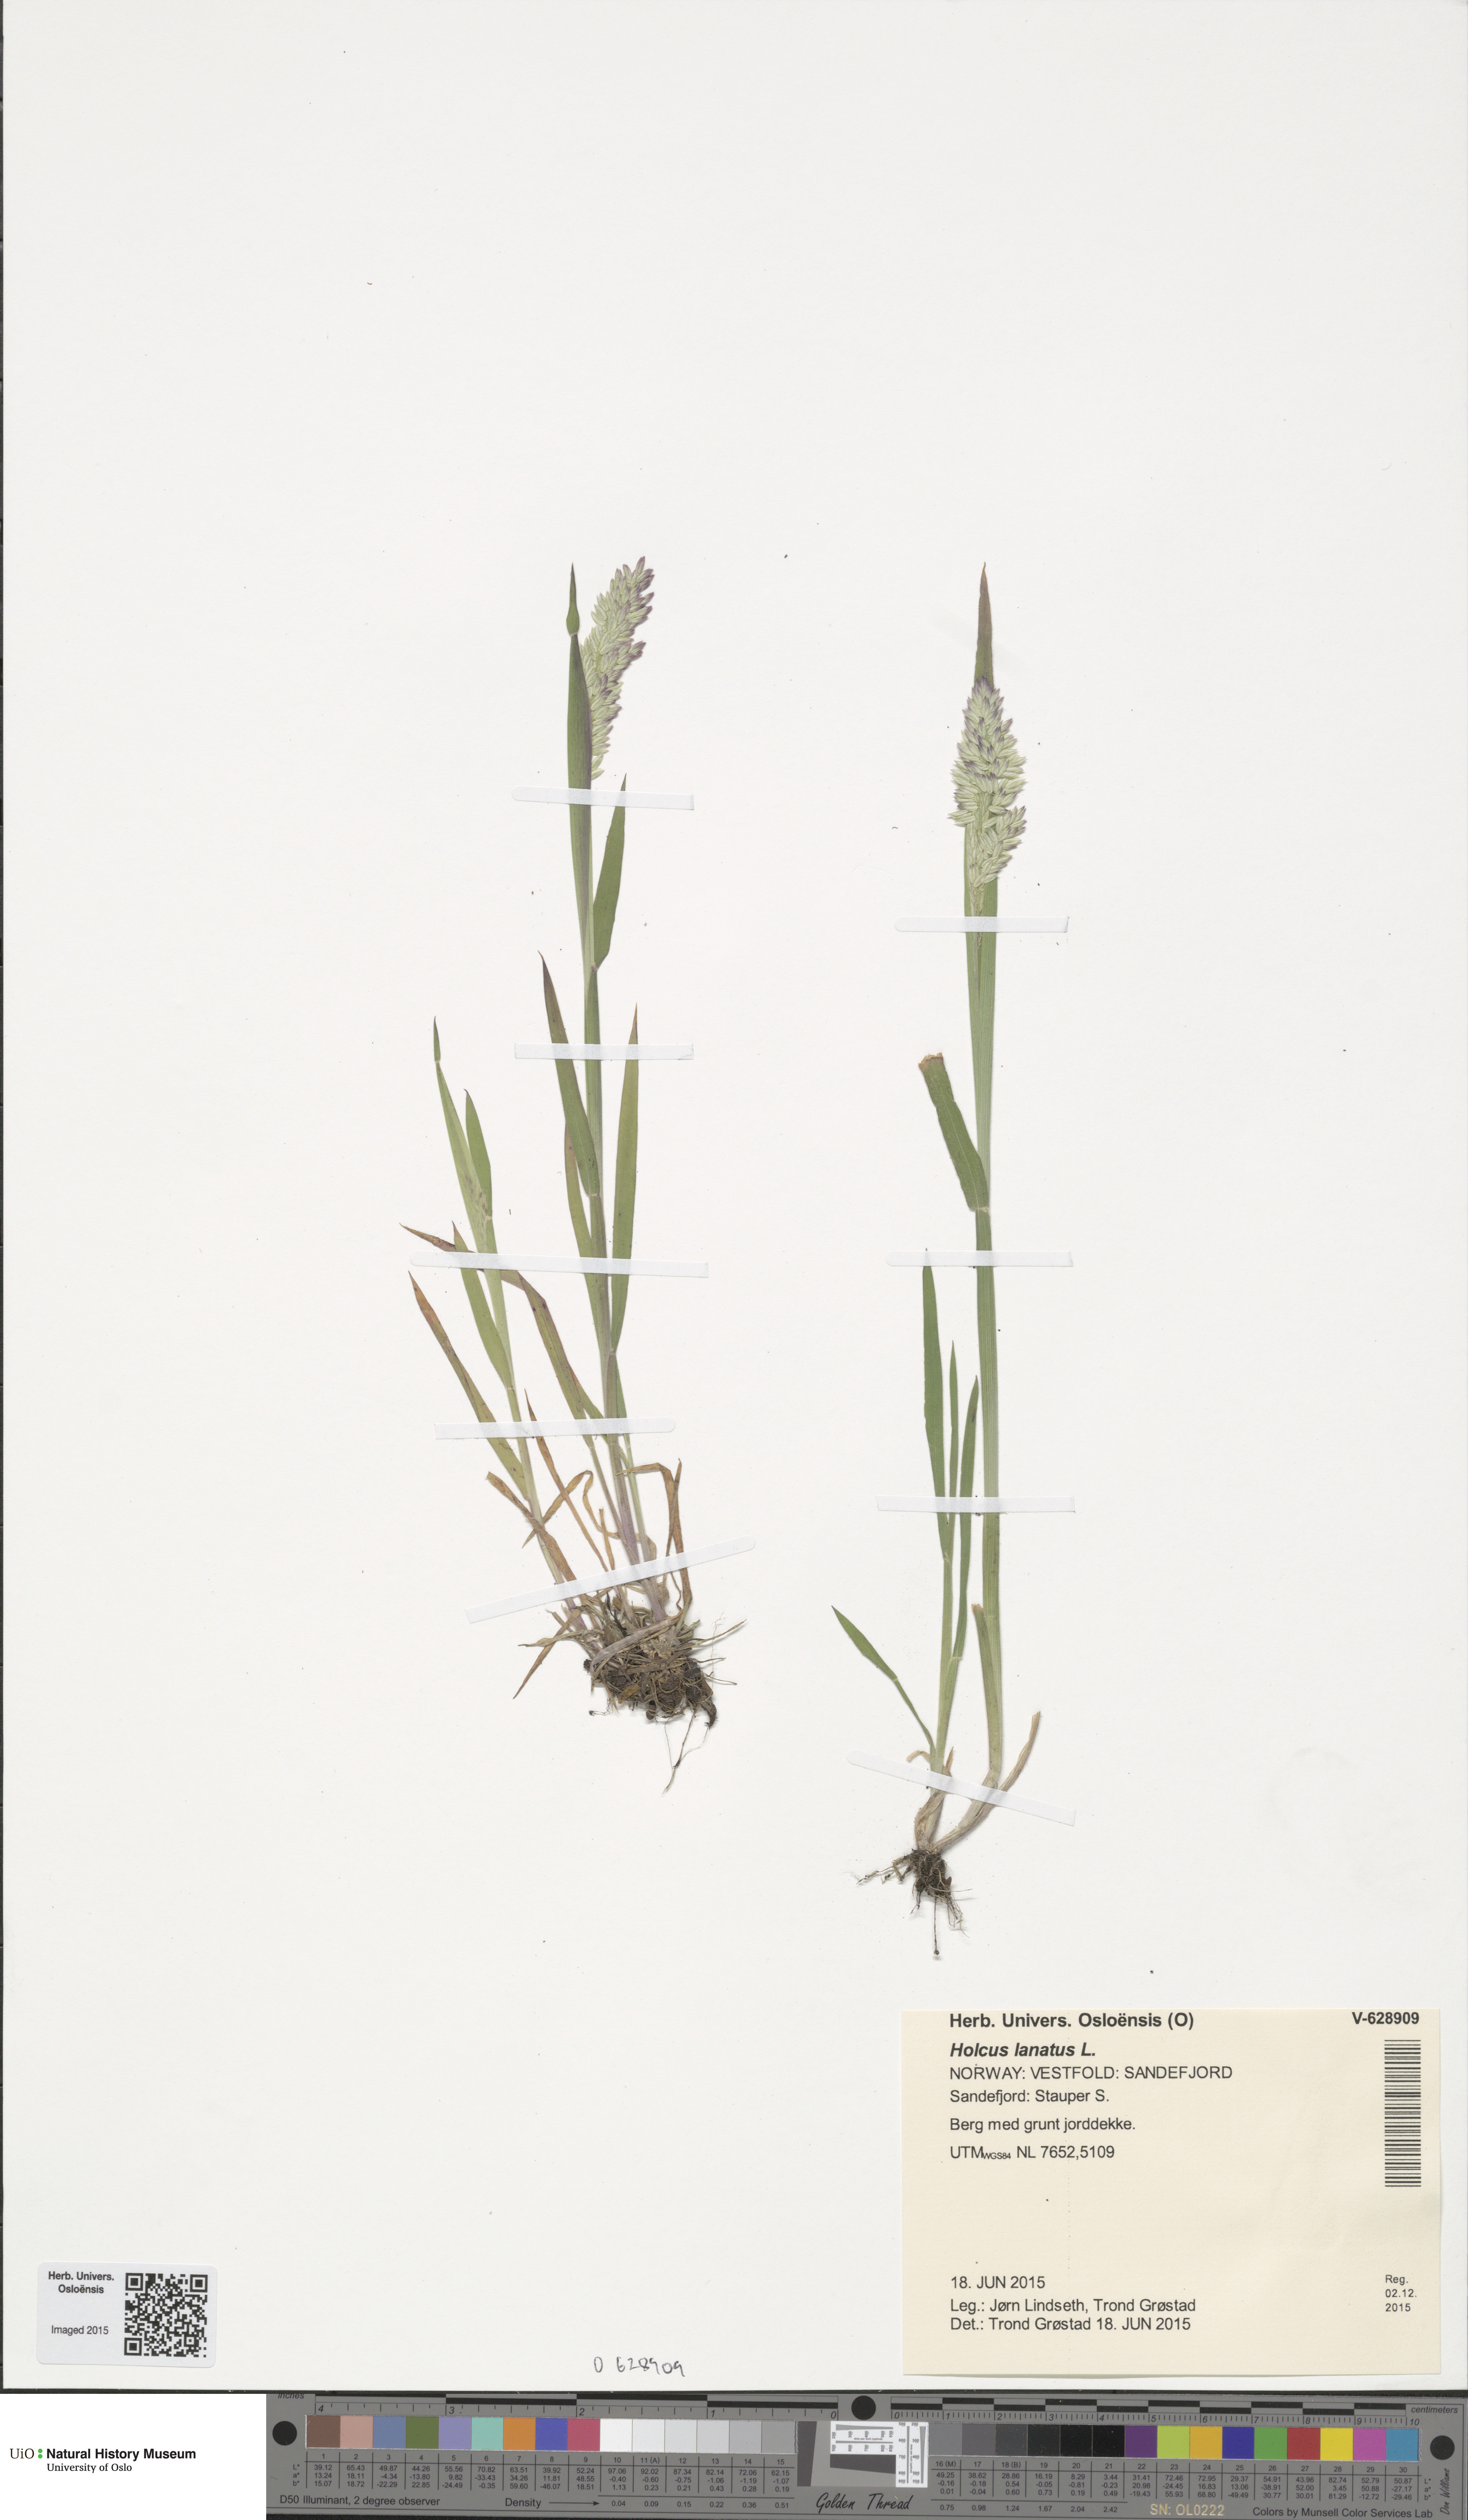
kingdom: Plantae
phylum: Tracheophyta
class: Liliopsida
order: Poales
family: Poaceae
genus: Holcus
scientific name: Holcus lanatus
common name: Yorkshire-fog
